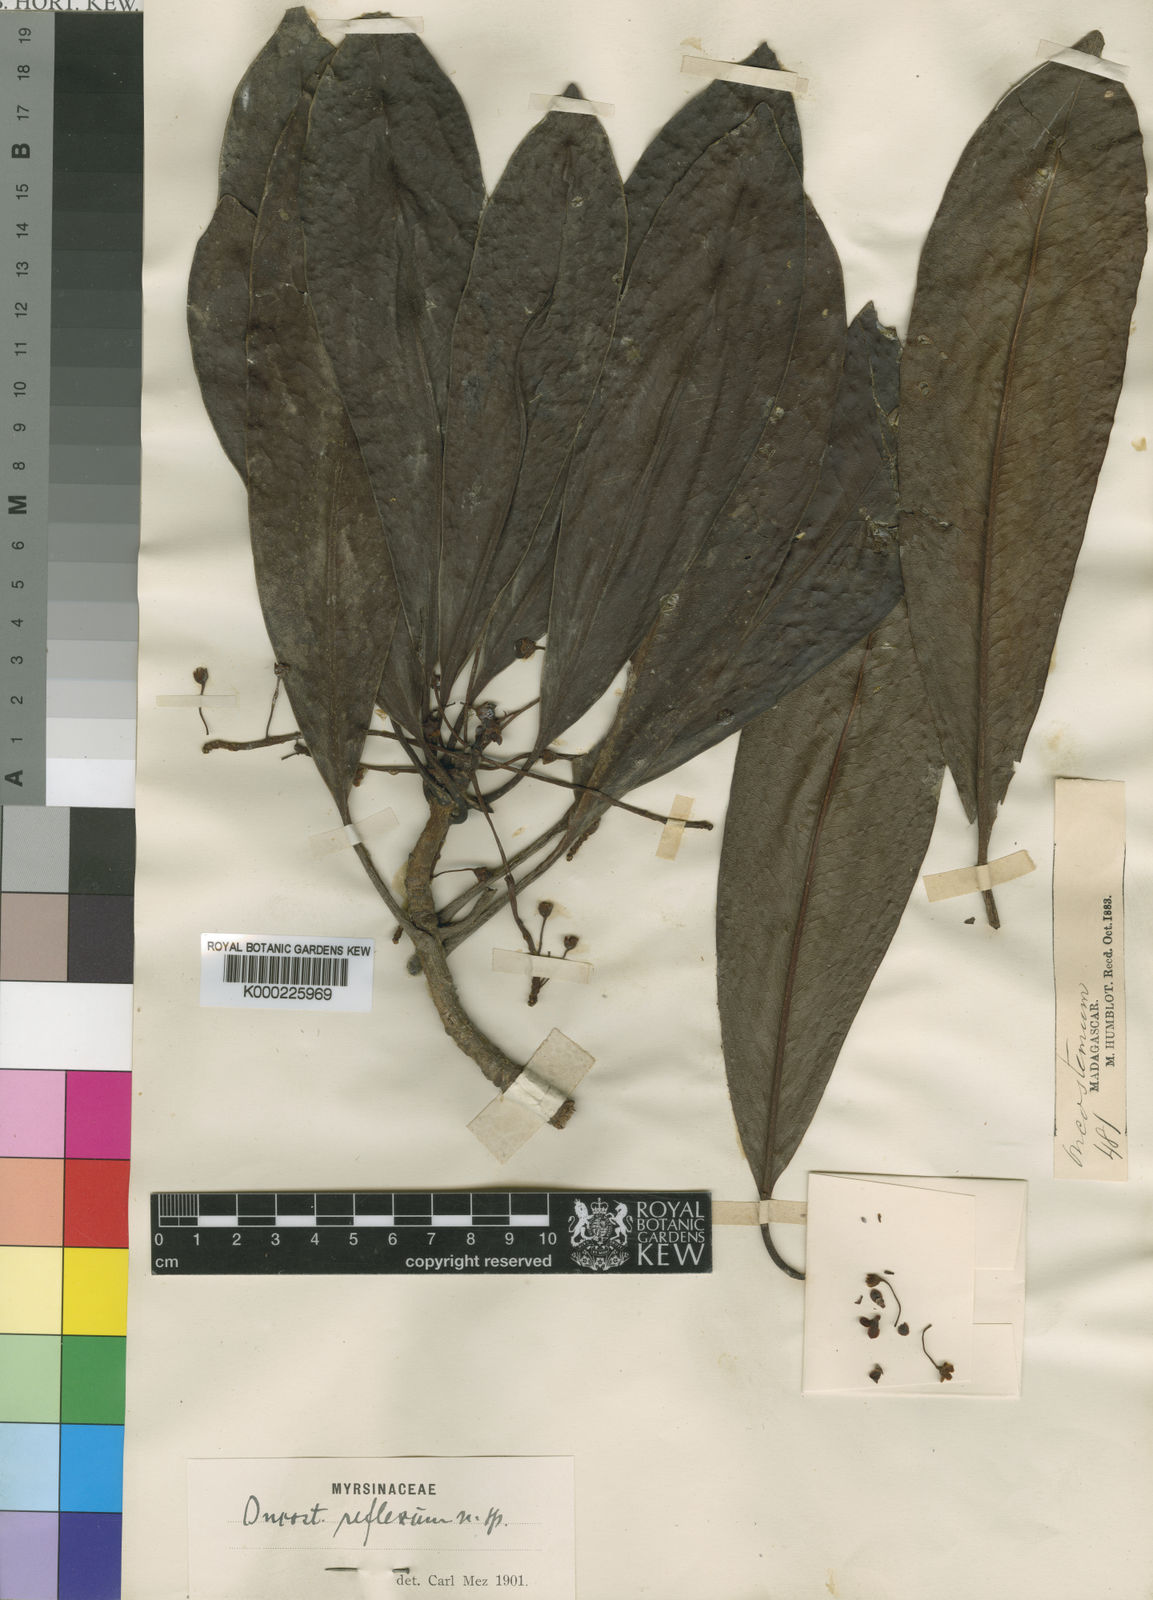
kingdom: Plantae
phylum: Tracheophyta
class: Magnoliopsida
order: Ericales
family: Primulaceae
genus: Oncostemum
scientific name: Oncostemum reflexum
